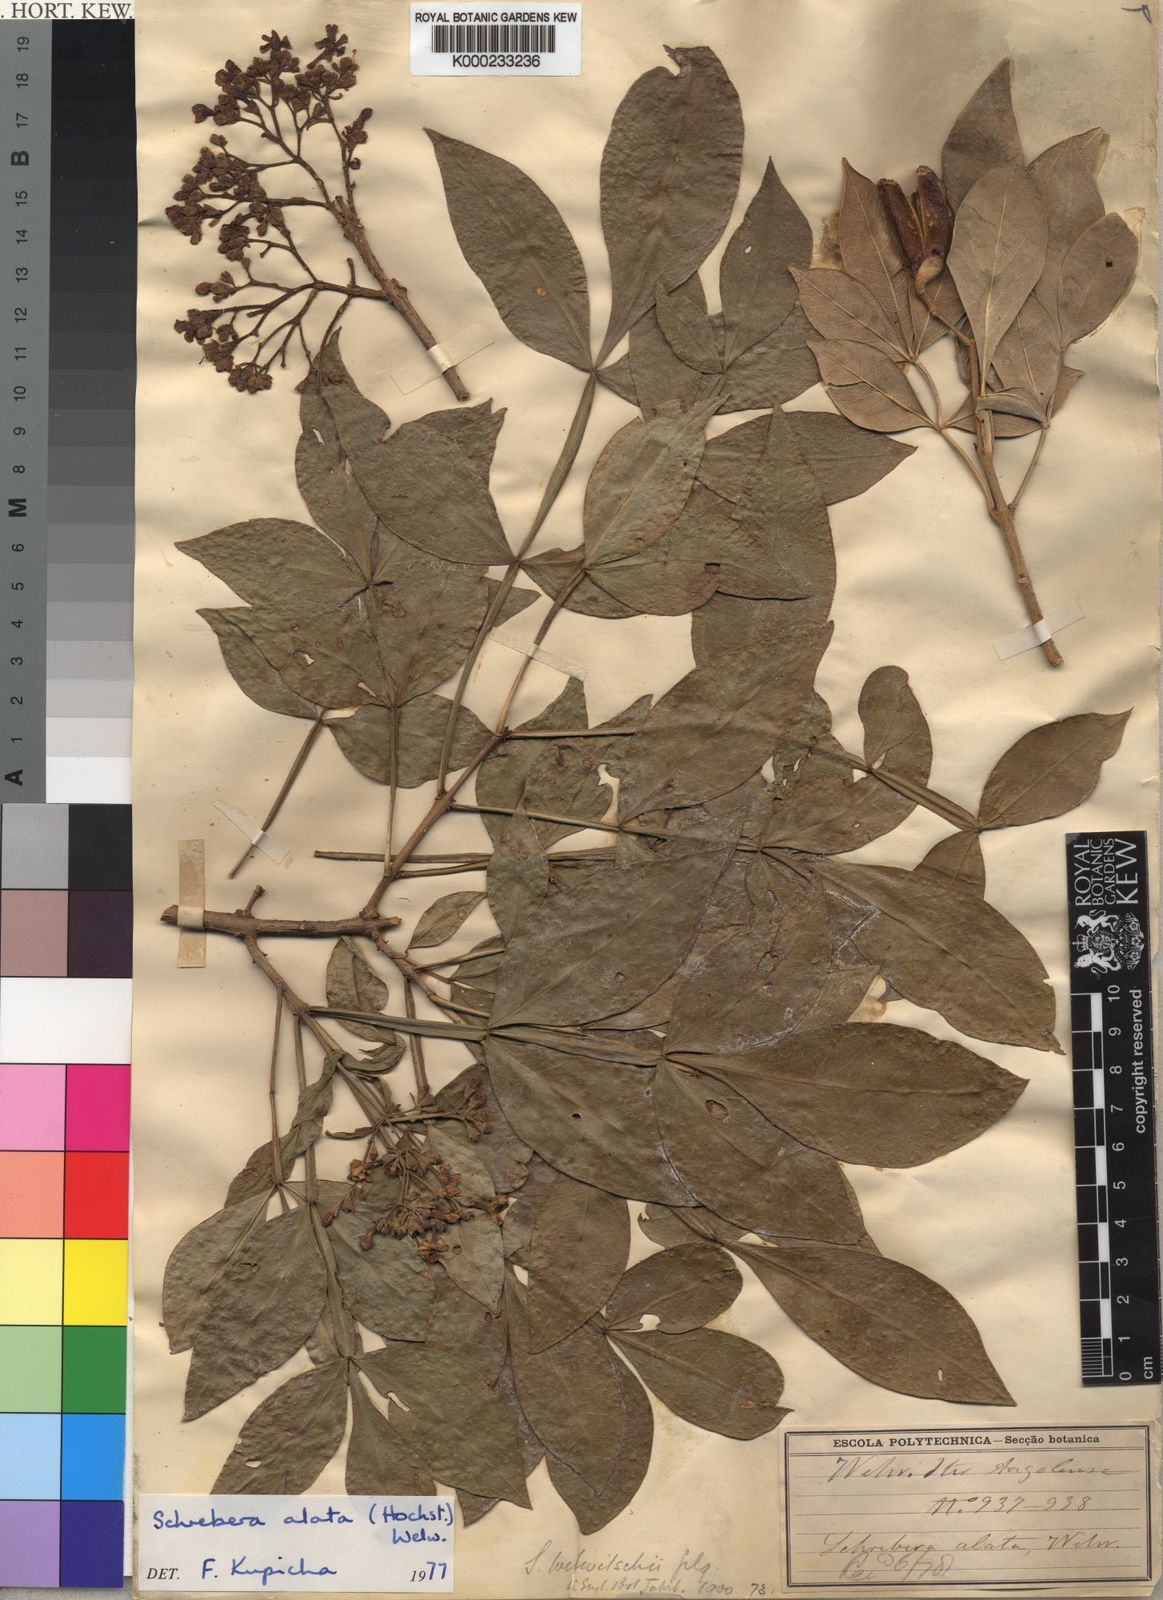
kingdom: Plantae
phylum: Tracheophyta
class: Magnoliopsida
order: Lamiales
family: Oleaceae
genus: Schrebera
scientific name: Schrebera alata
